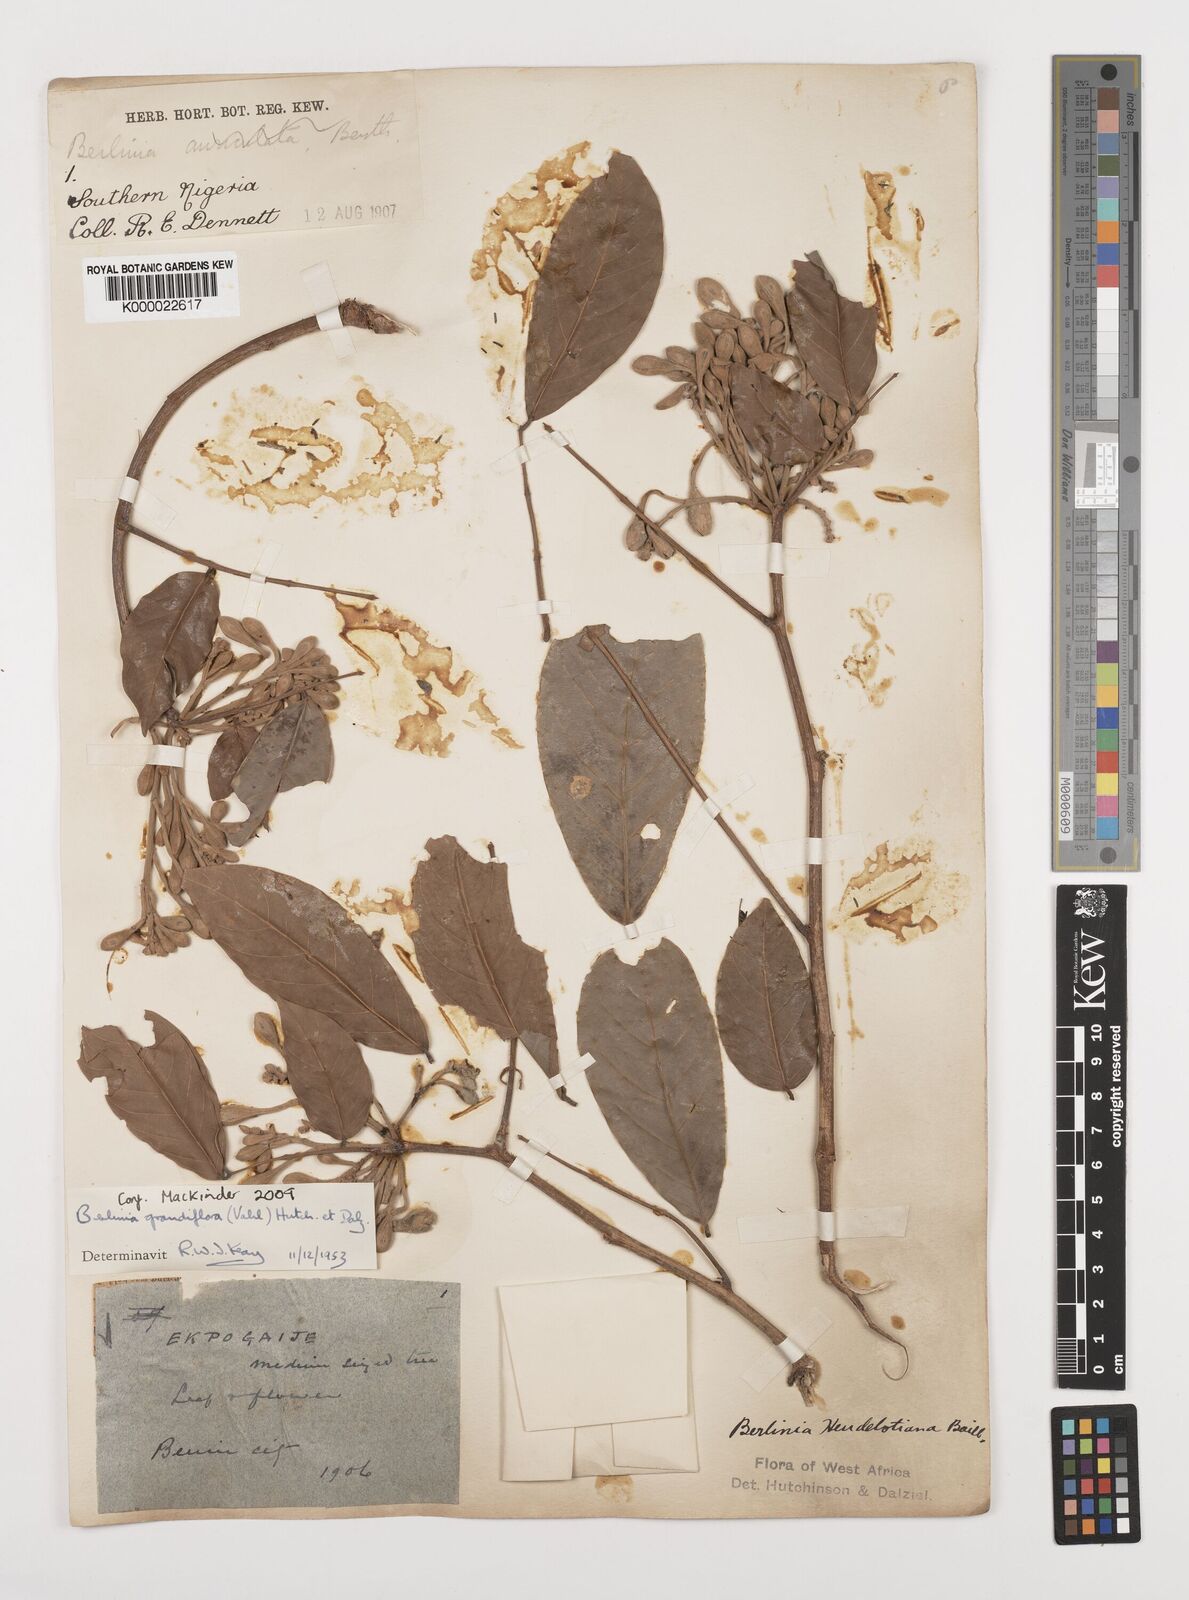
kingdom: Plantae
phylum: Tracheophyta
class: Magnoliopsida
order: Fabales
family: Fabaceae
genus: Berlinia
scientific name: Berlinia grandiflora
